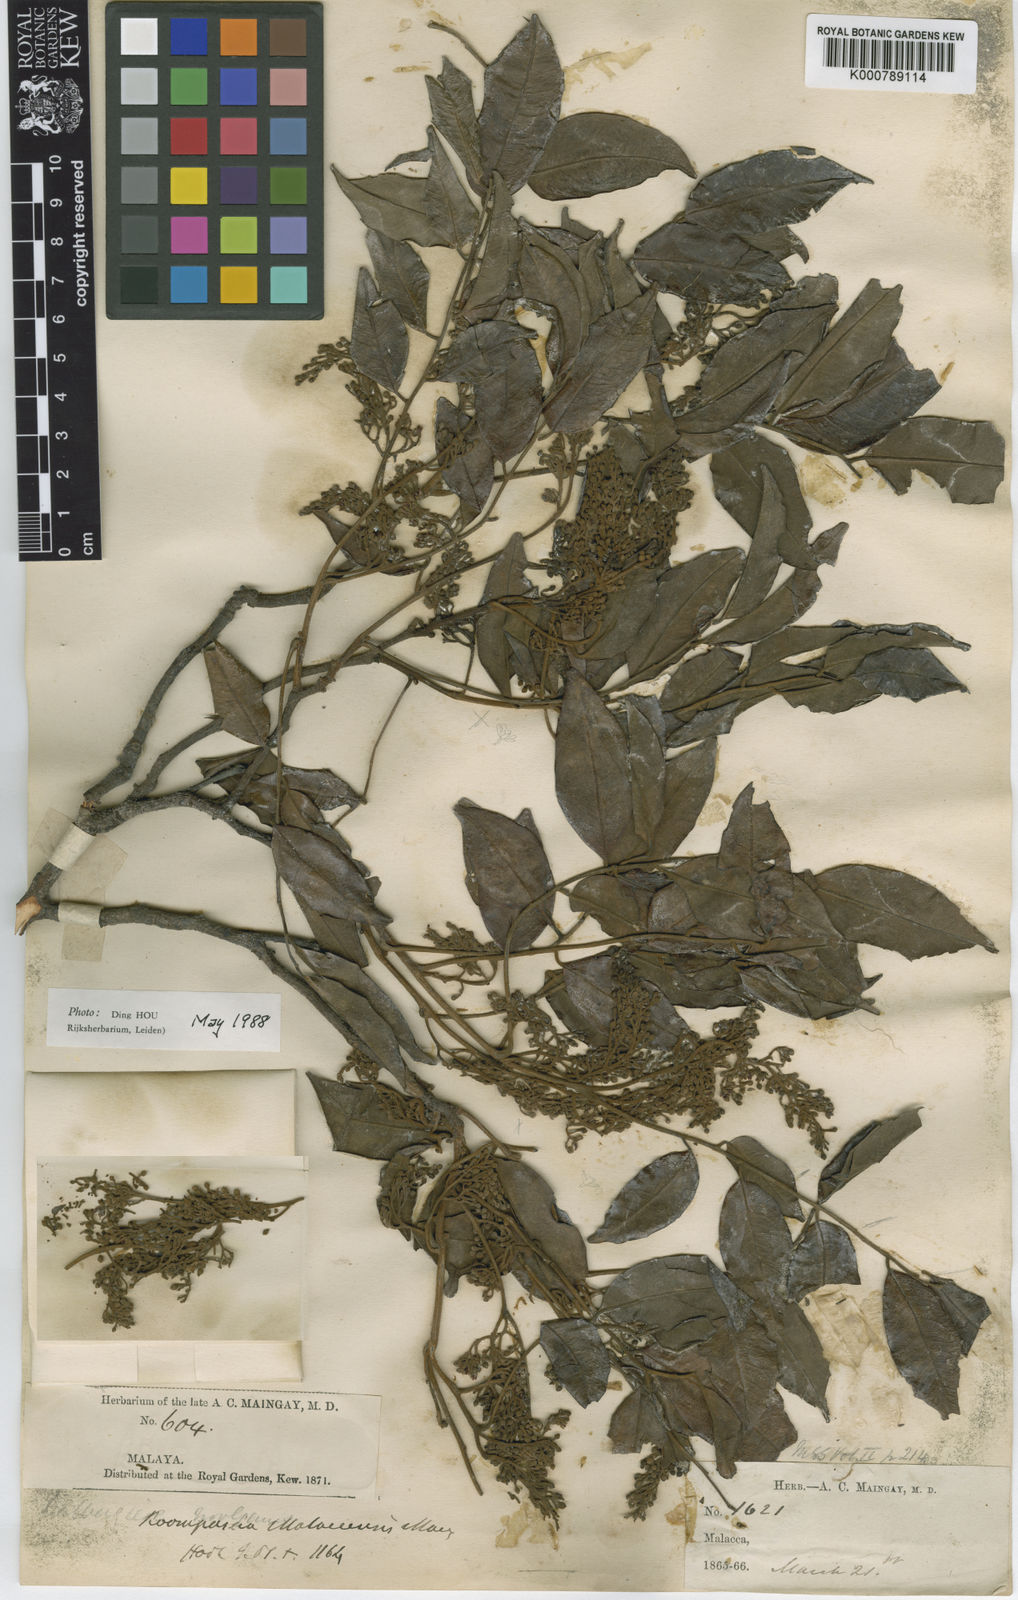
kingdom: Plantae
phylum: Tracheophyta
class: Magnoliopsida
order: Fabales
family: Fabaceae
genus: Koompassia
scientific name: Koompassia malaccensis
